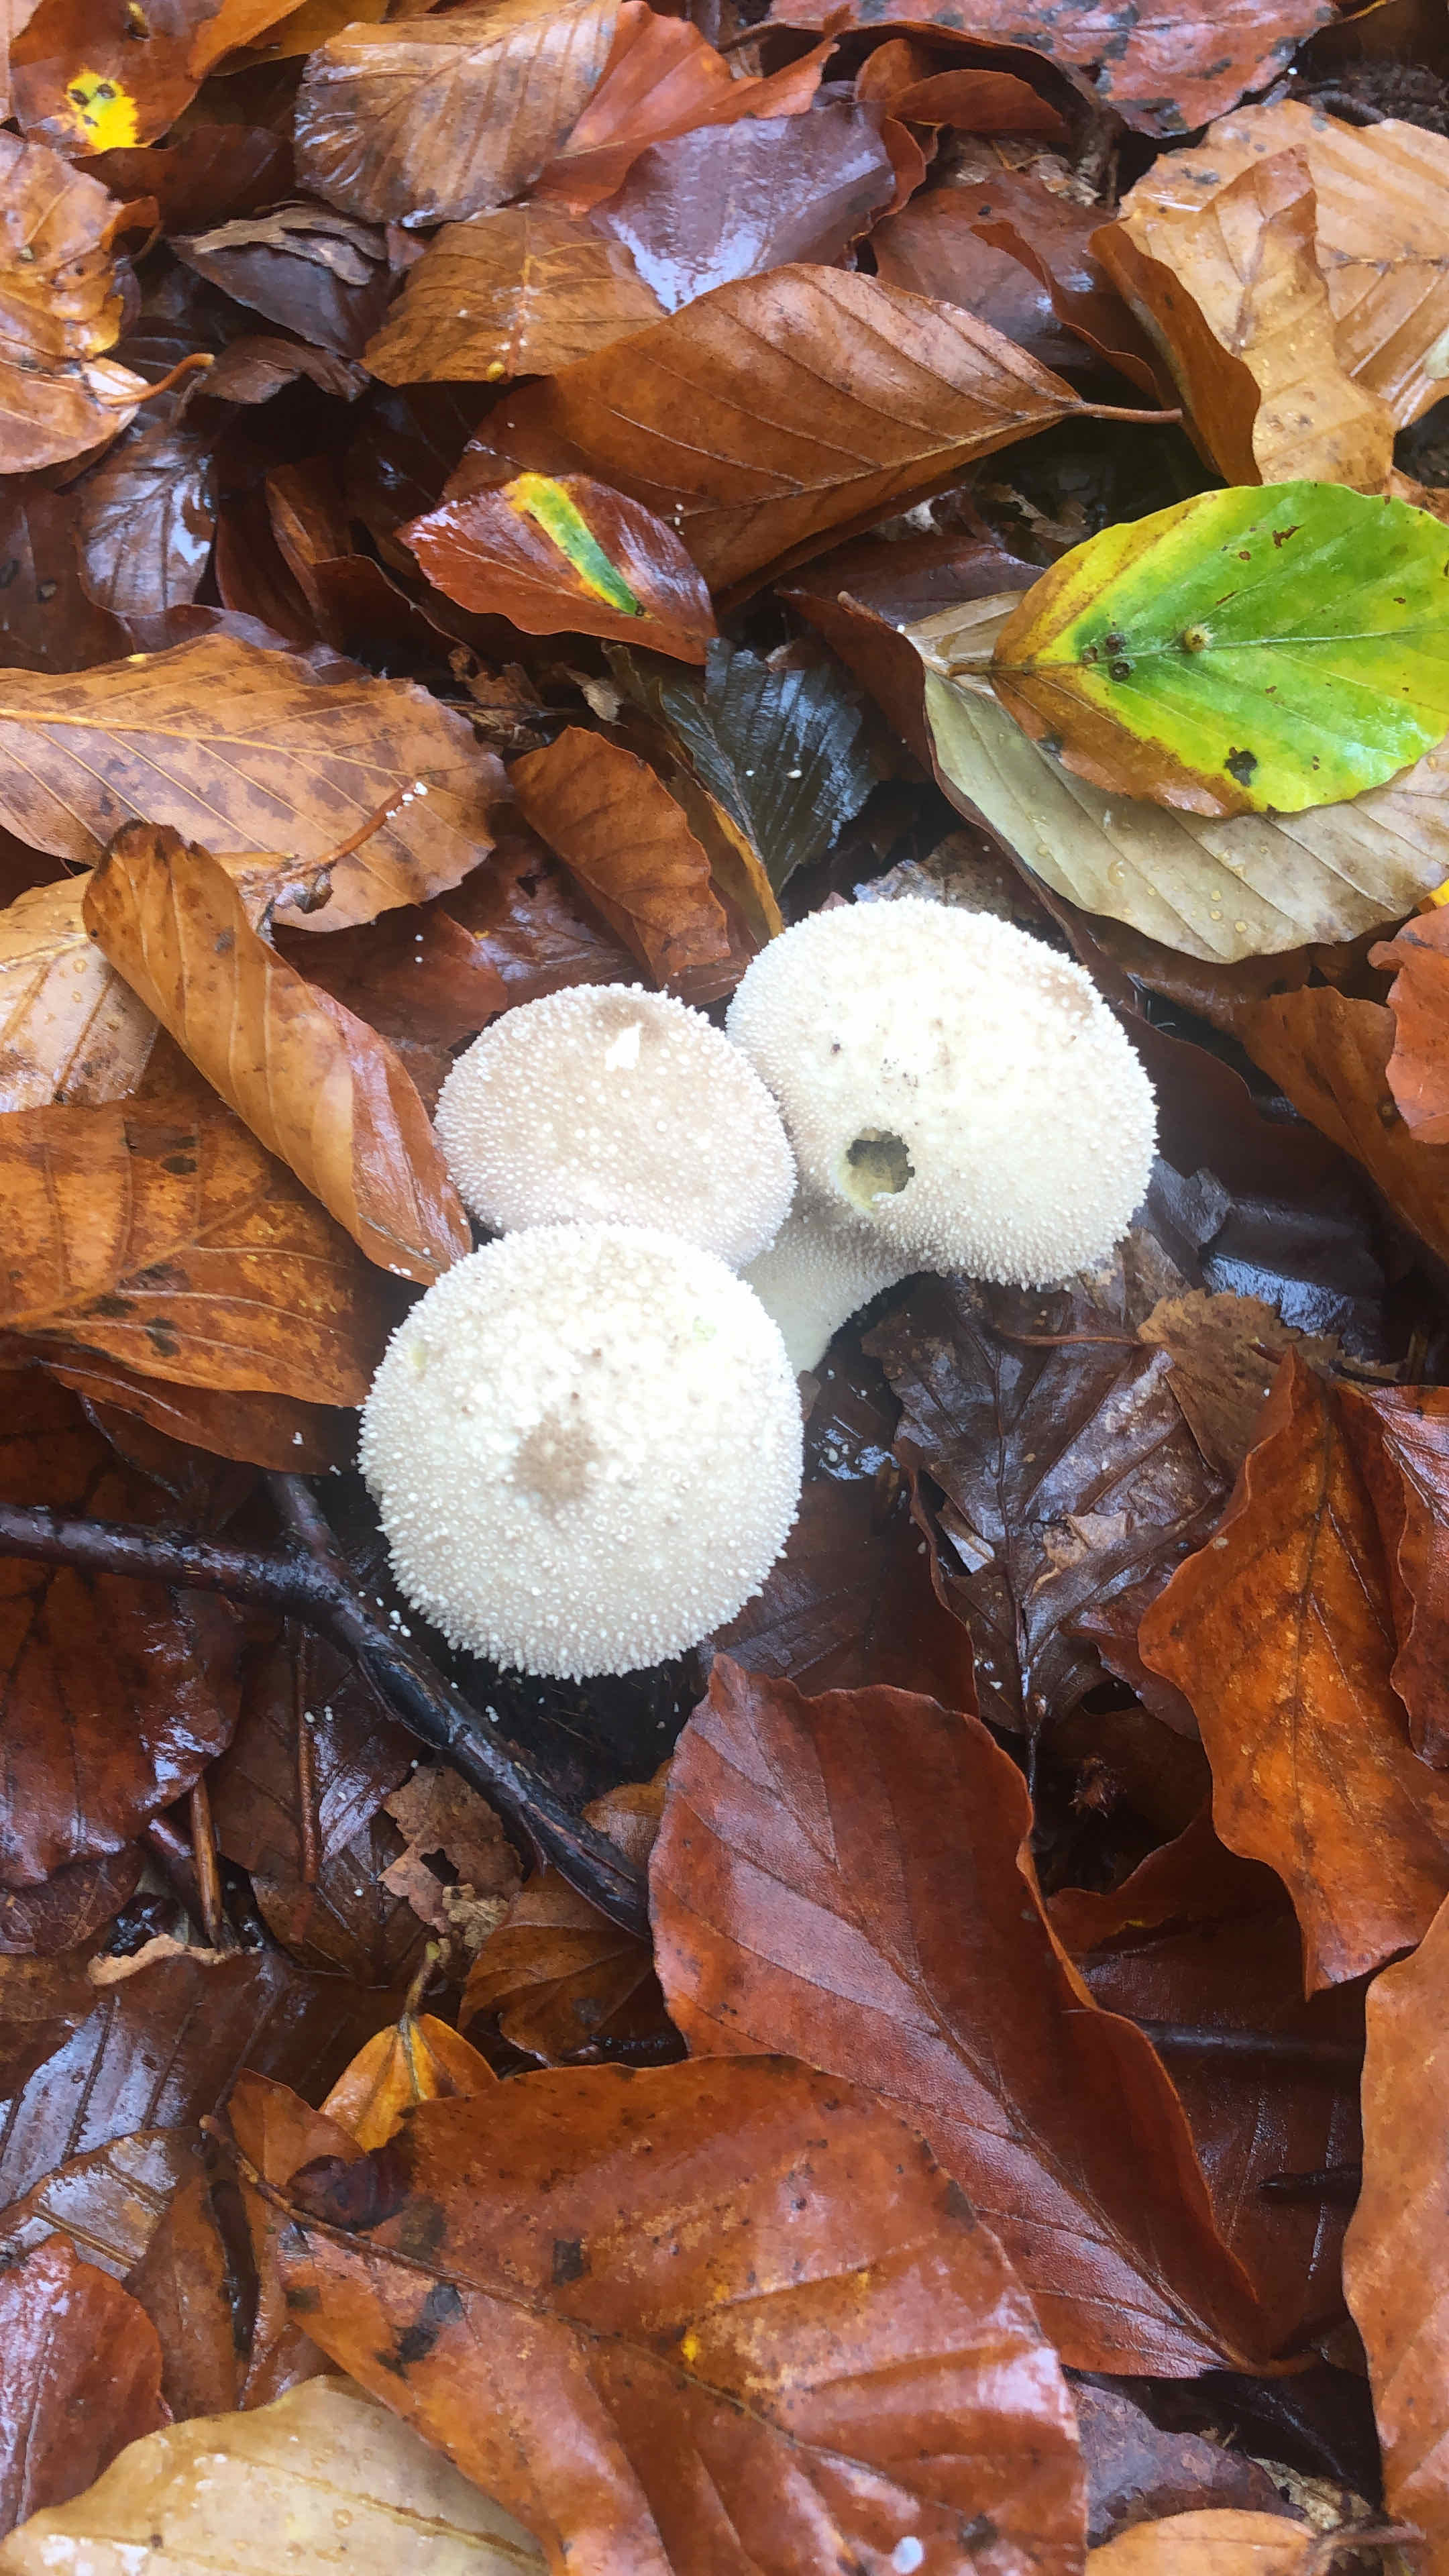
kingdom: Fungi
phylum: Basidiomycota
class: Agaricomycetes
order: Agaricales
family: Lycoperdaceae
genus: Lycoperdon
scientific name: Lycoperdon perlatum
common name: krystal-støvbold
